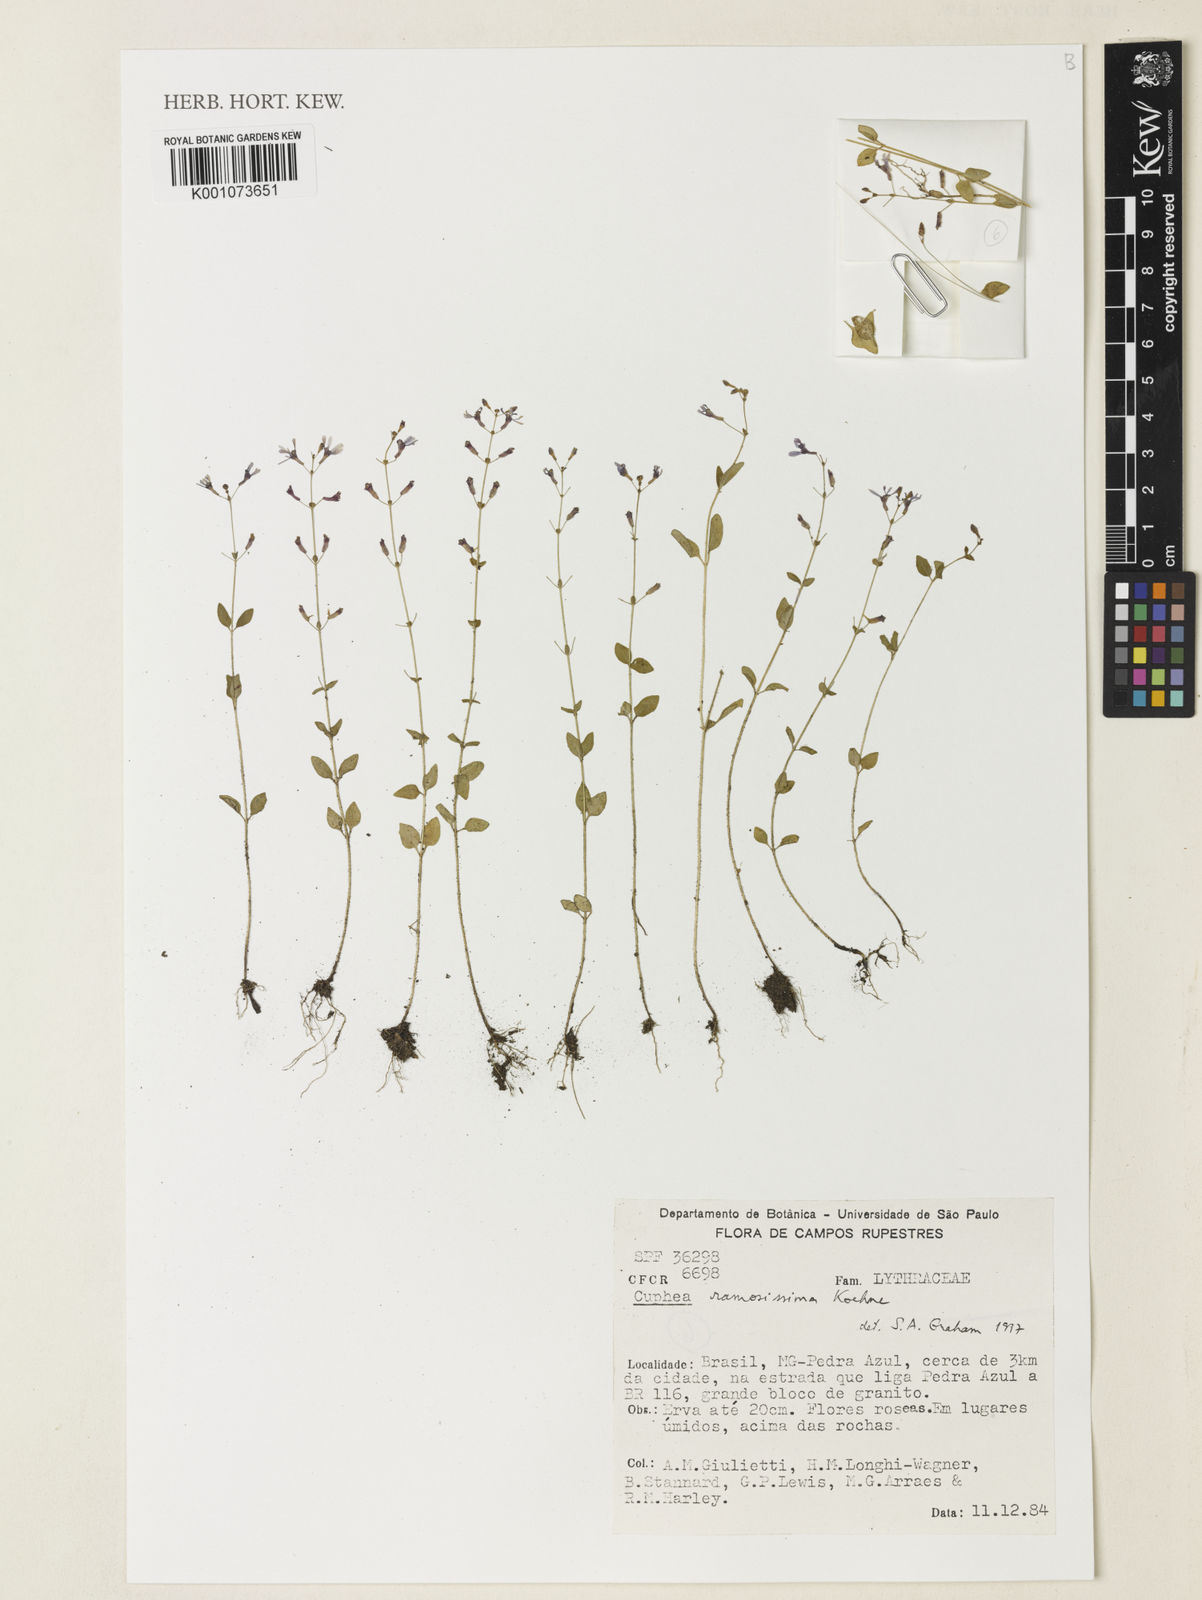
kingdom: Plantae
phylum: Tracheophyta
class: Magnoliopsida
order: Myrtales
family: Lythraceae
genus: Cuphea
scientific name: Cuphea ramosissima
